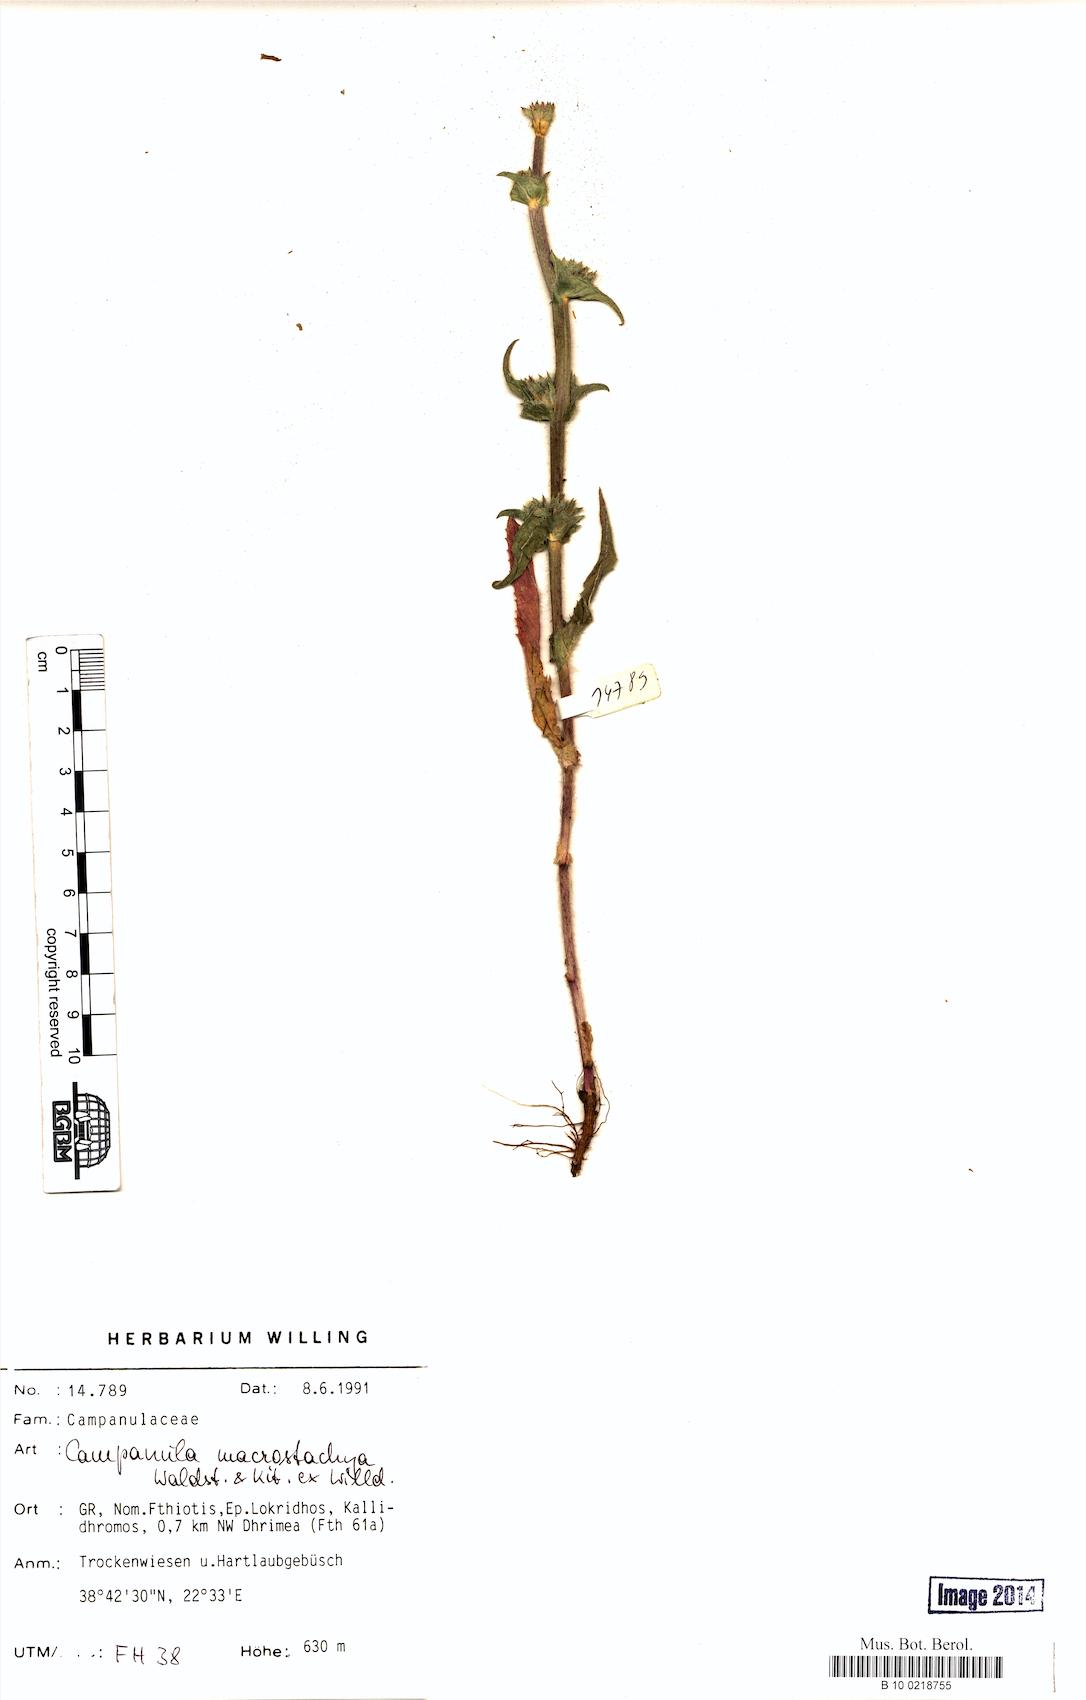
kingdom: Plantae
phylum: Tracheophyta
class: Magnoliopsida
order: Asterales
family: Campanulaceae
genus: Campanula
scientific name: Campanula macrostachya
